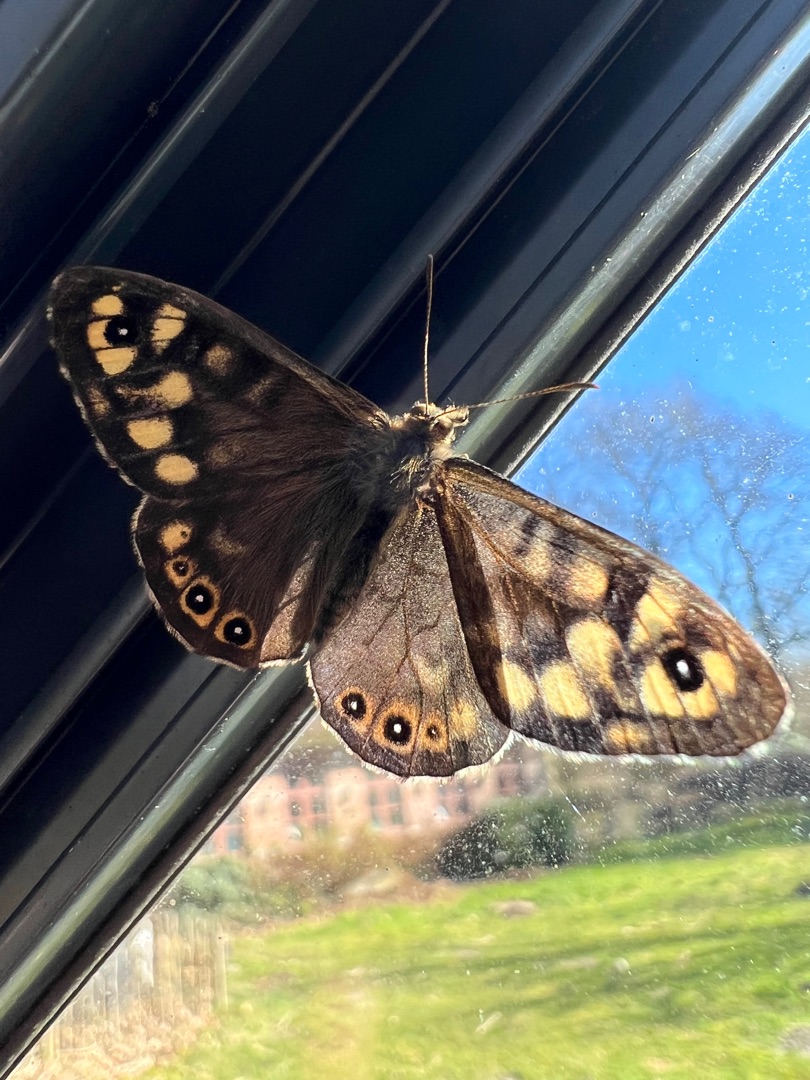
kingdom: Animalia
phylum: Arthropoda
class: Insecta
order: Lepidoptera
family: Nymphalidae
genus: Pararge
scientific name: Pararge aegeria
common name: Skovrandøje
